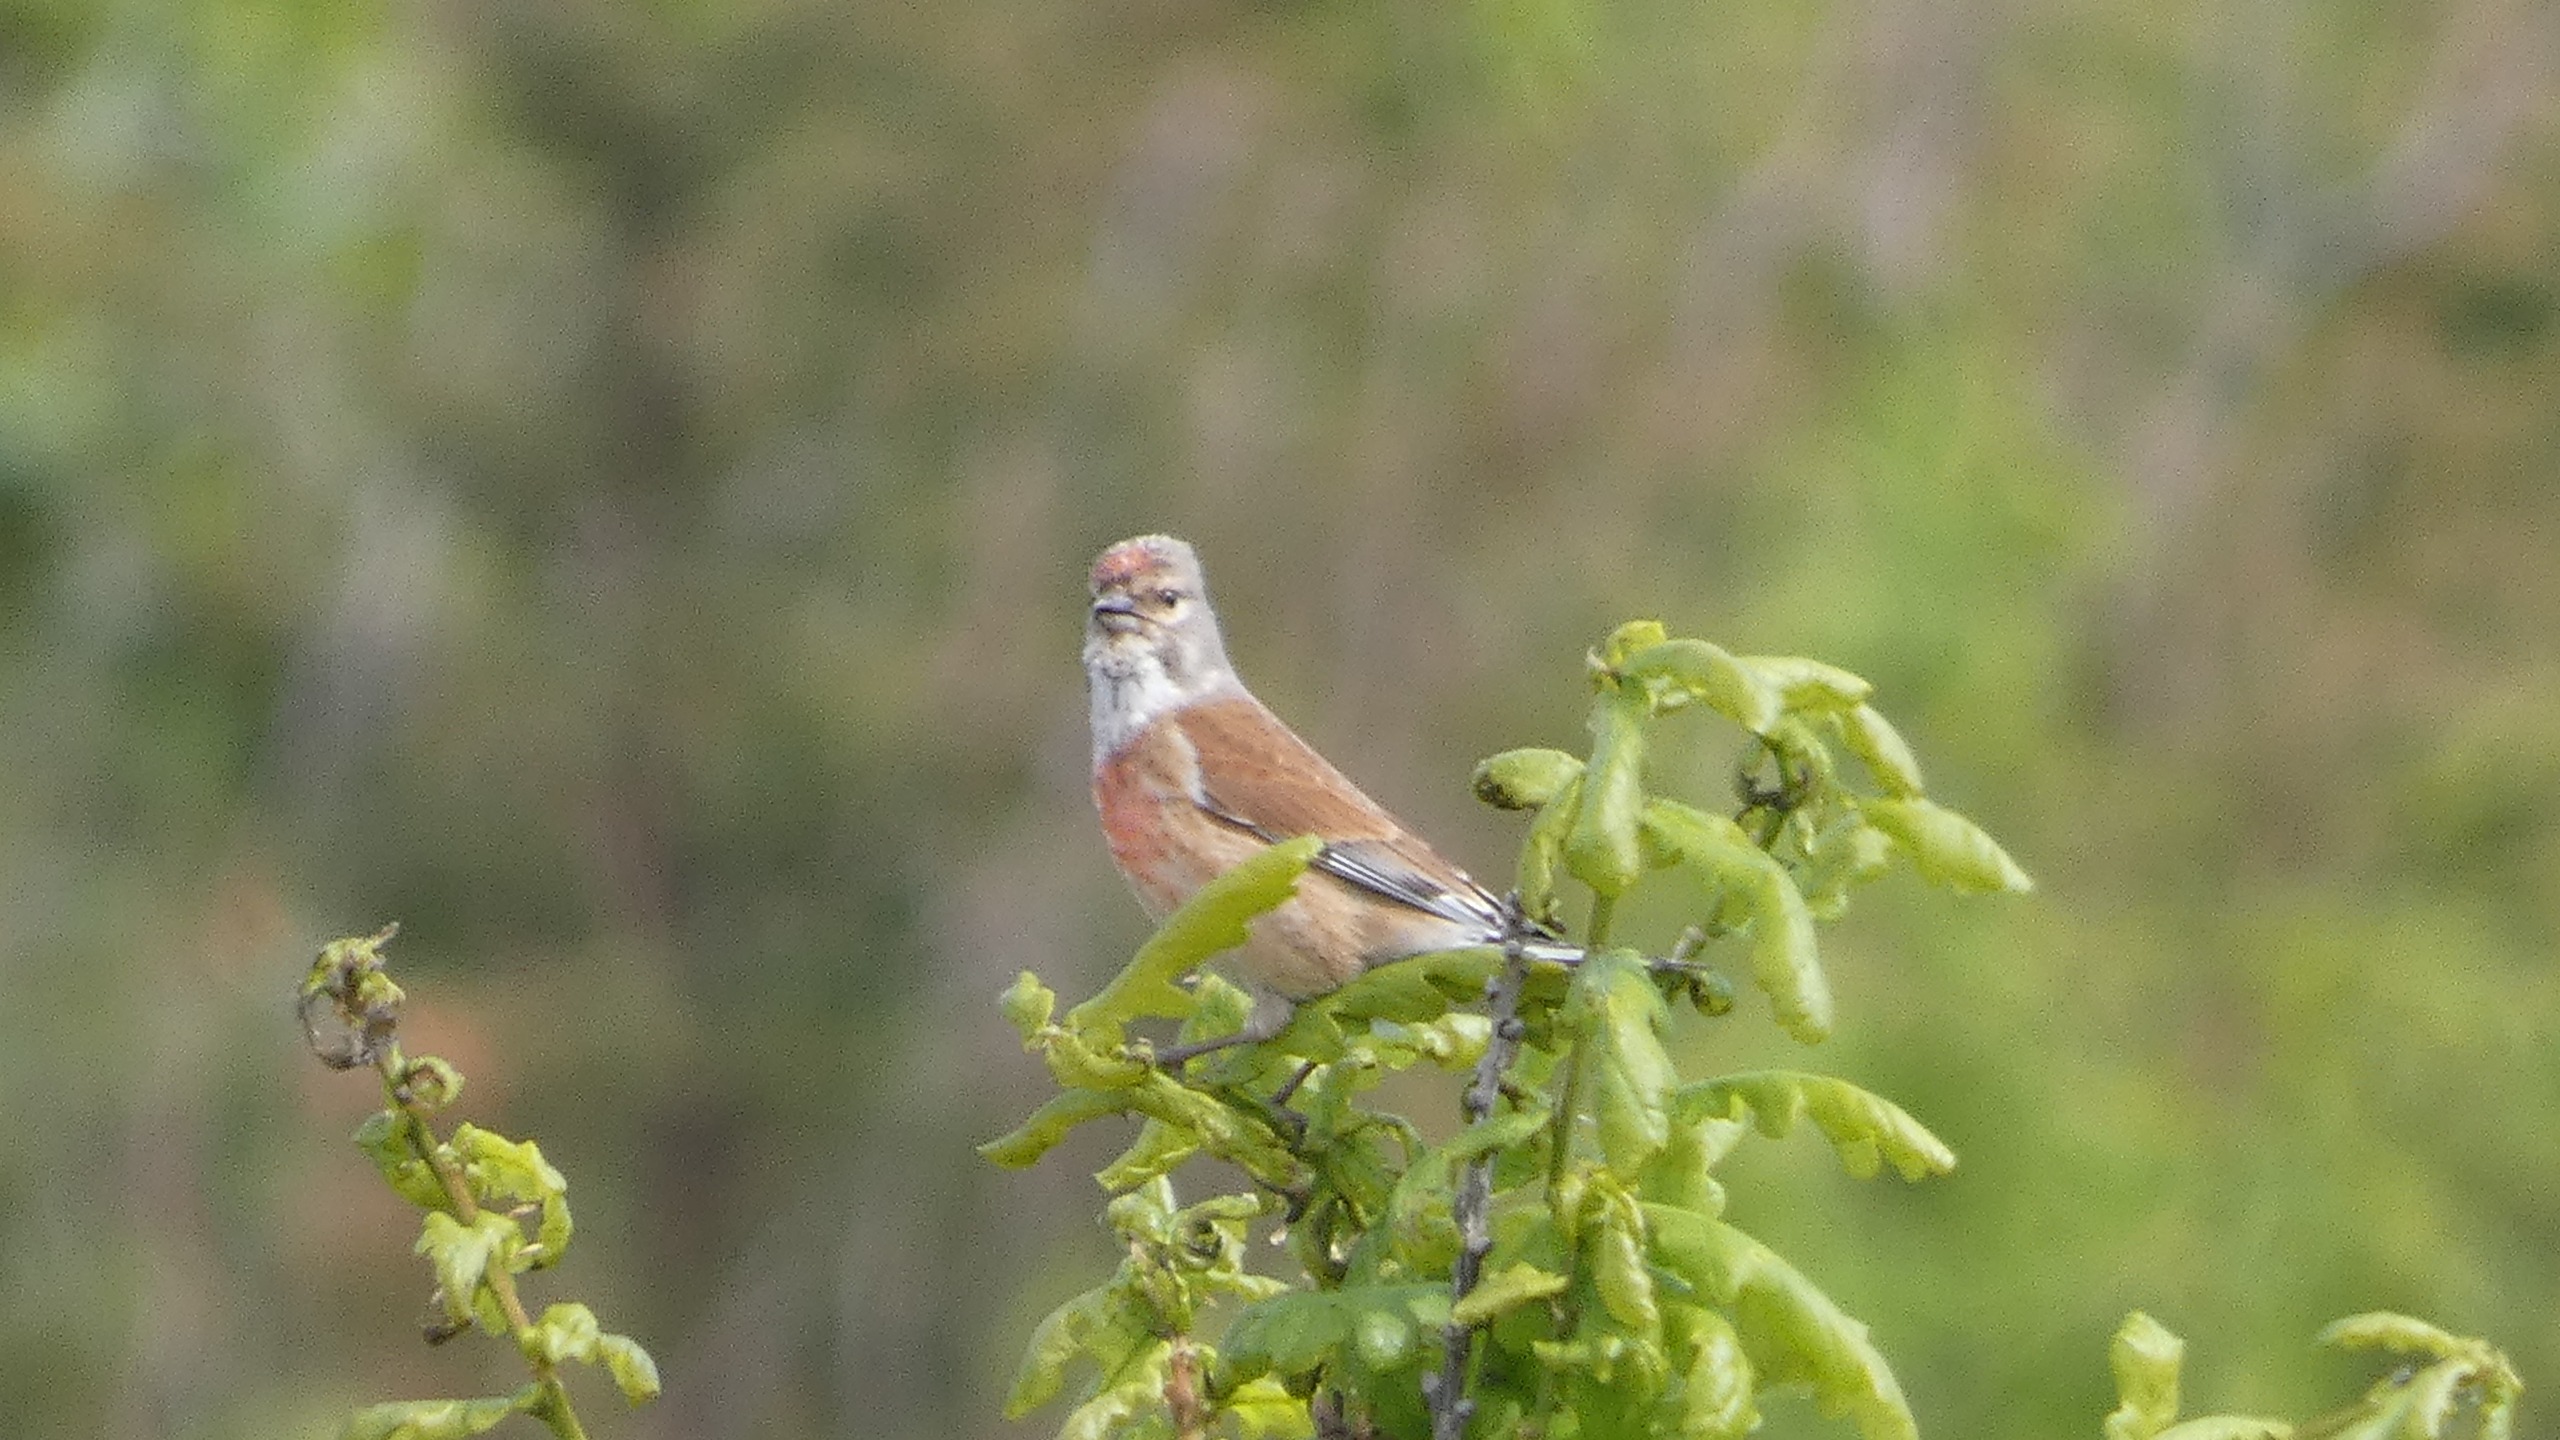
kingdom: Animalia
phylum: Chordata
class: Aves
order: Passeriformes
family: Fringillidae
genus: Linaria
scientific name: Linaria cannabina
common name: Tornirisk
